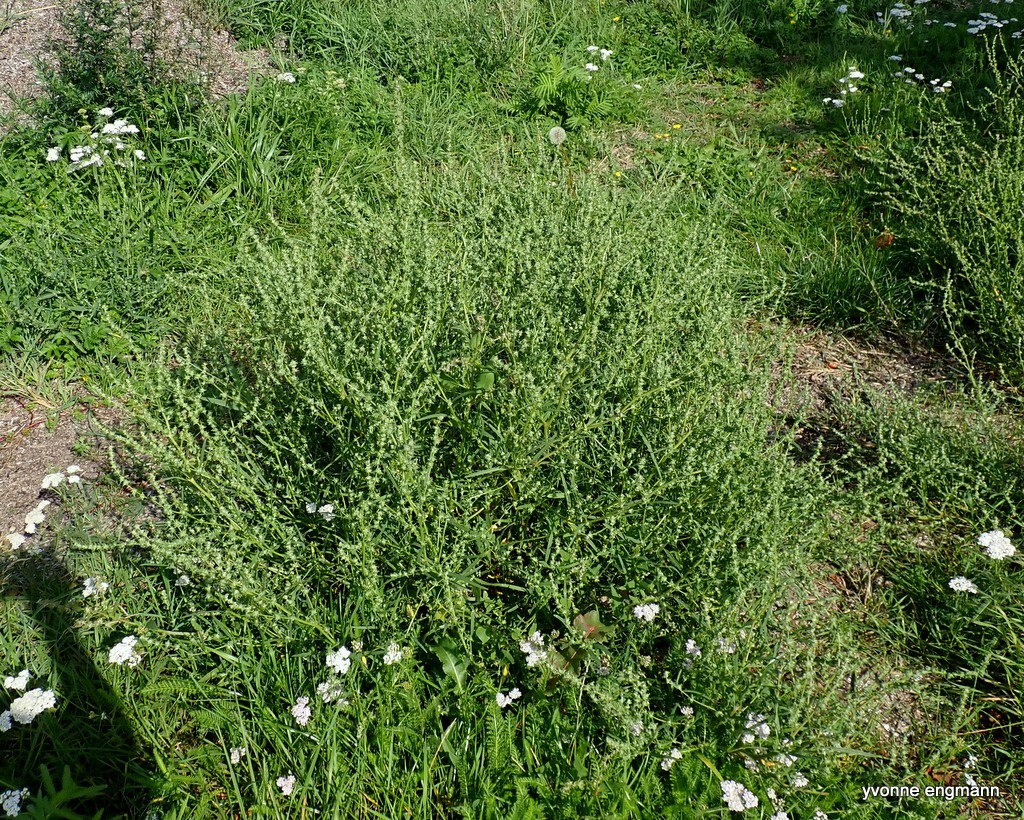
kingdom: Plantae
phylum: Tracheophyta
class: Magnoliopsida
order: Caryophyllales
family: Amaranthaceae
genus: Atriplex
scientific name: Atriplex littoralis
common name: Strand-mælde
